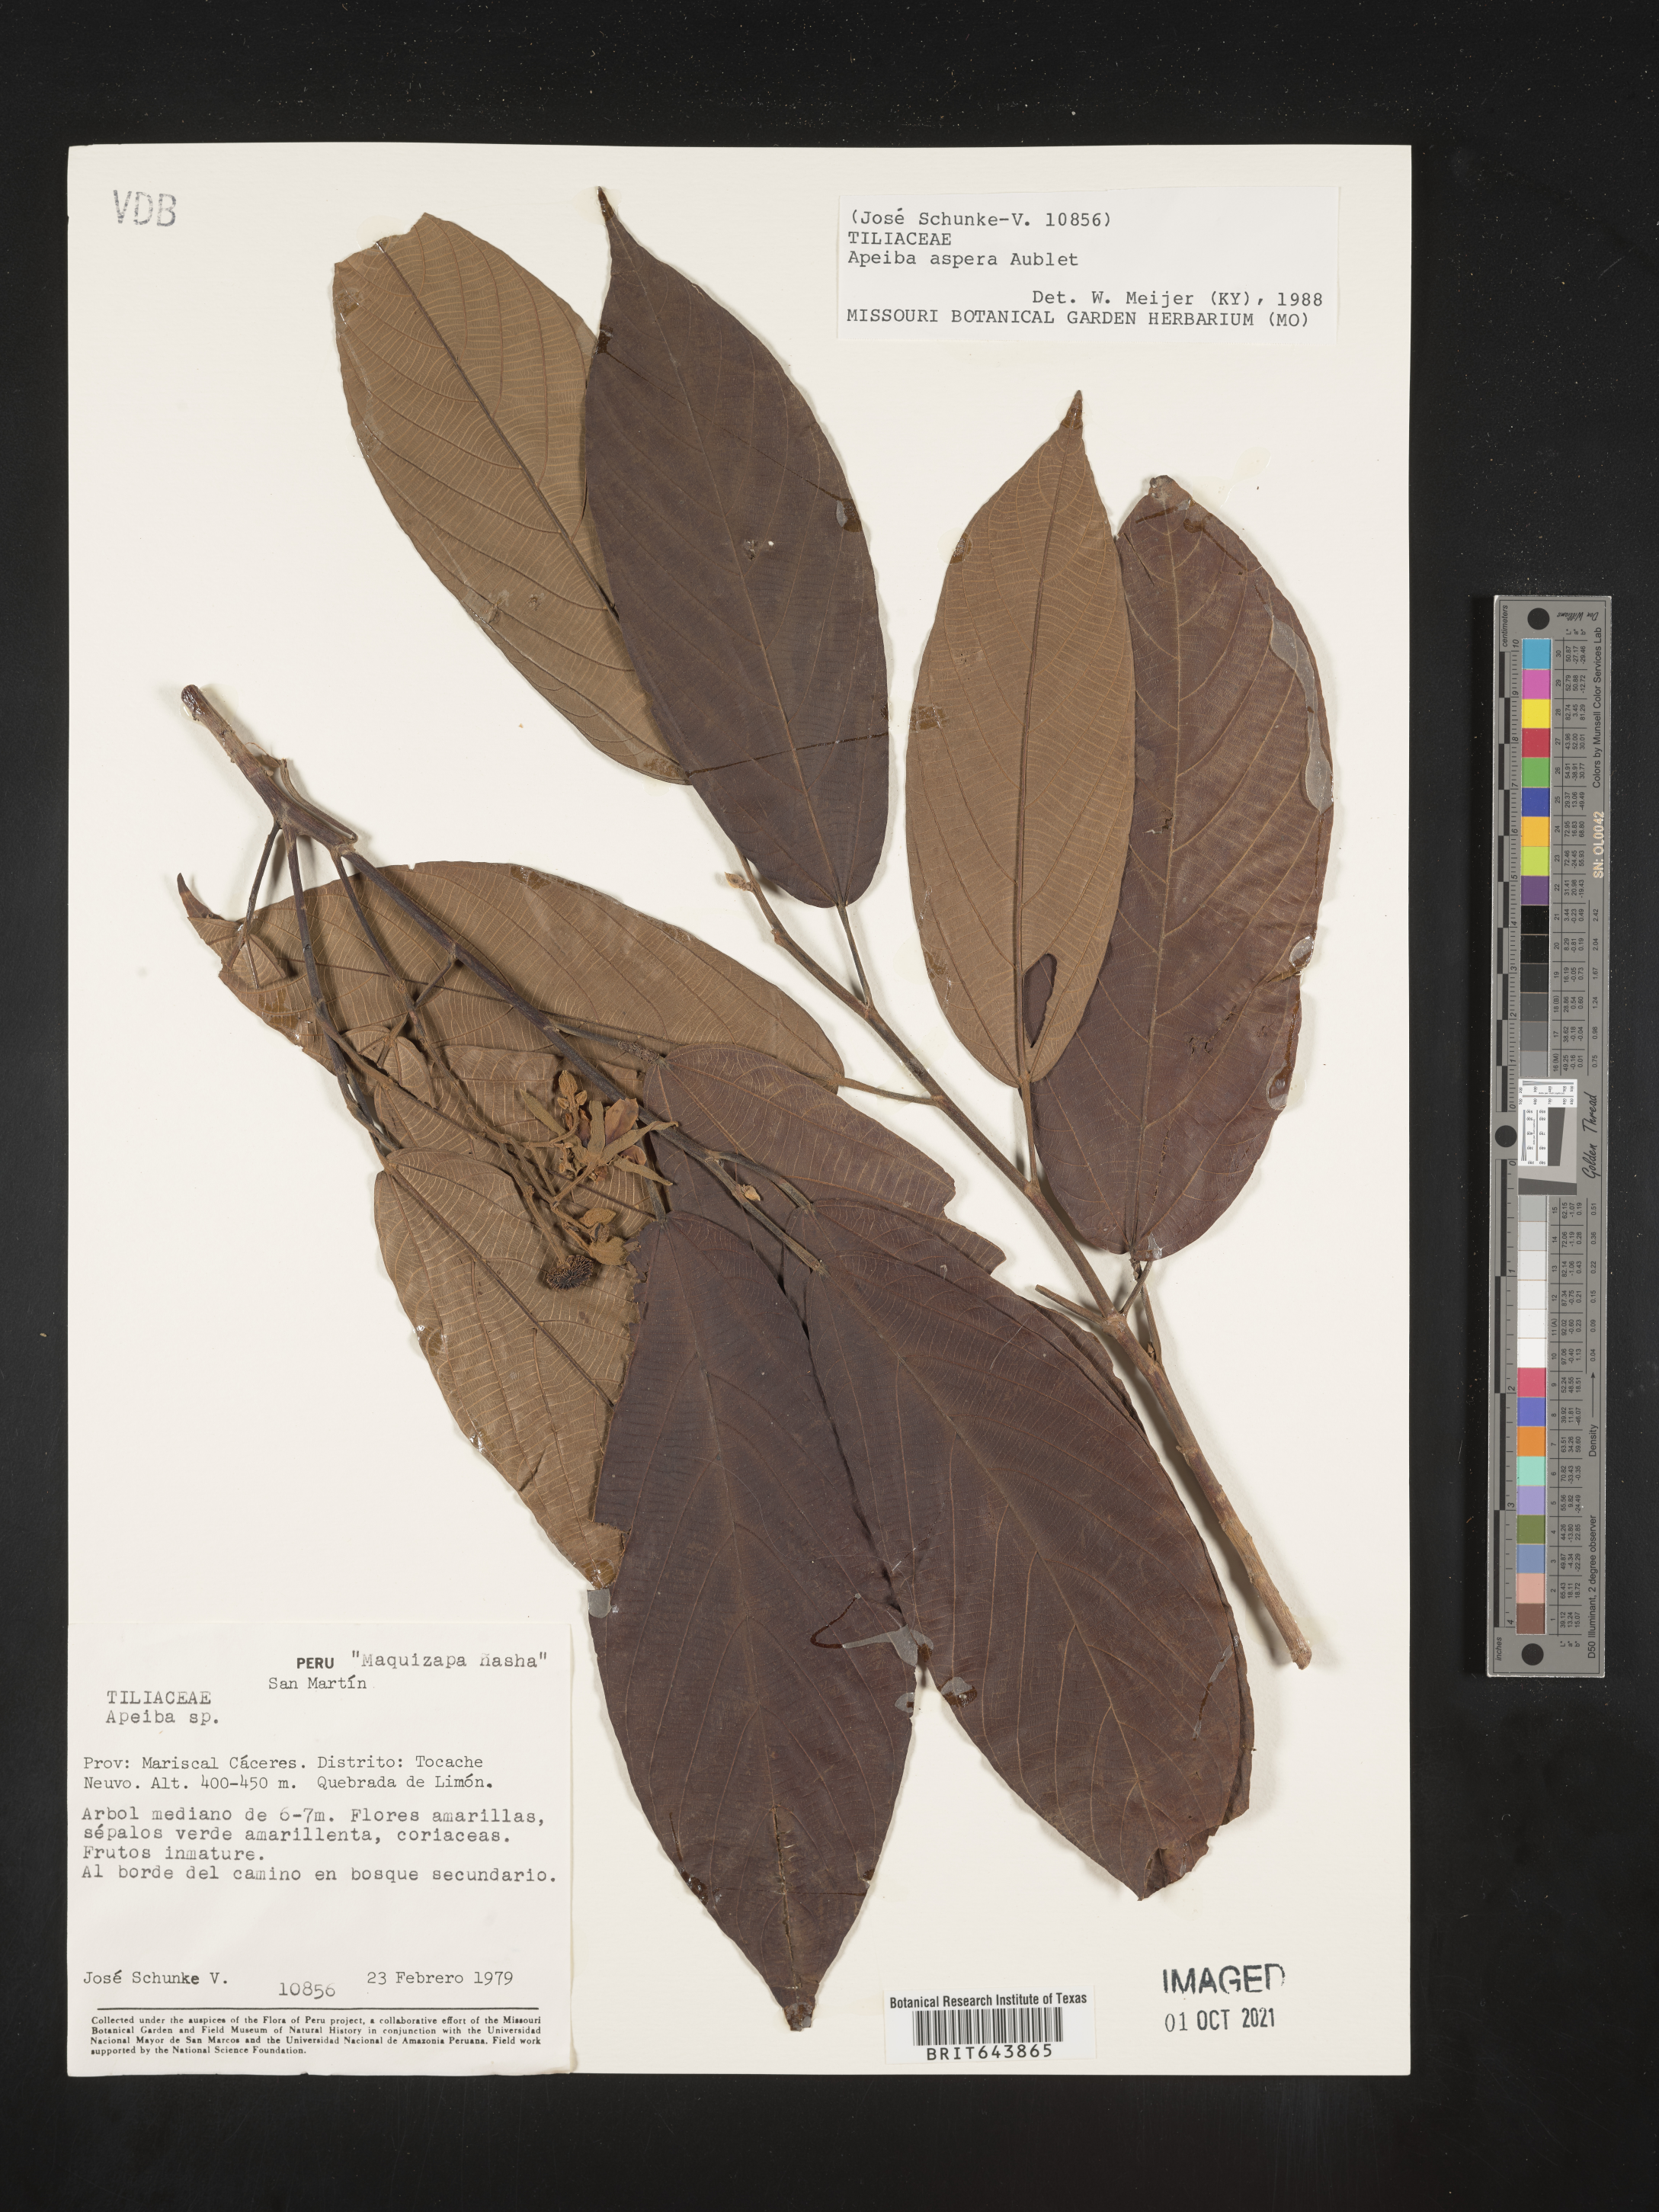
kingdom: Plantae
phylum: Tracheophyta
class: Magnoliopsida
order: Malvales
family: Malvaceae
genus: Apeiba
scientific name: Apeiba
